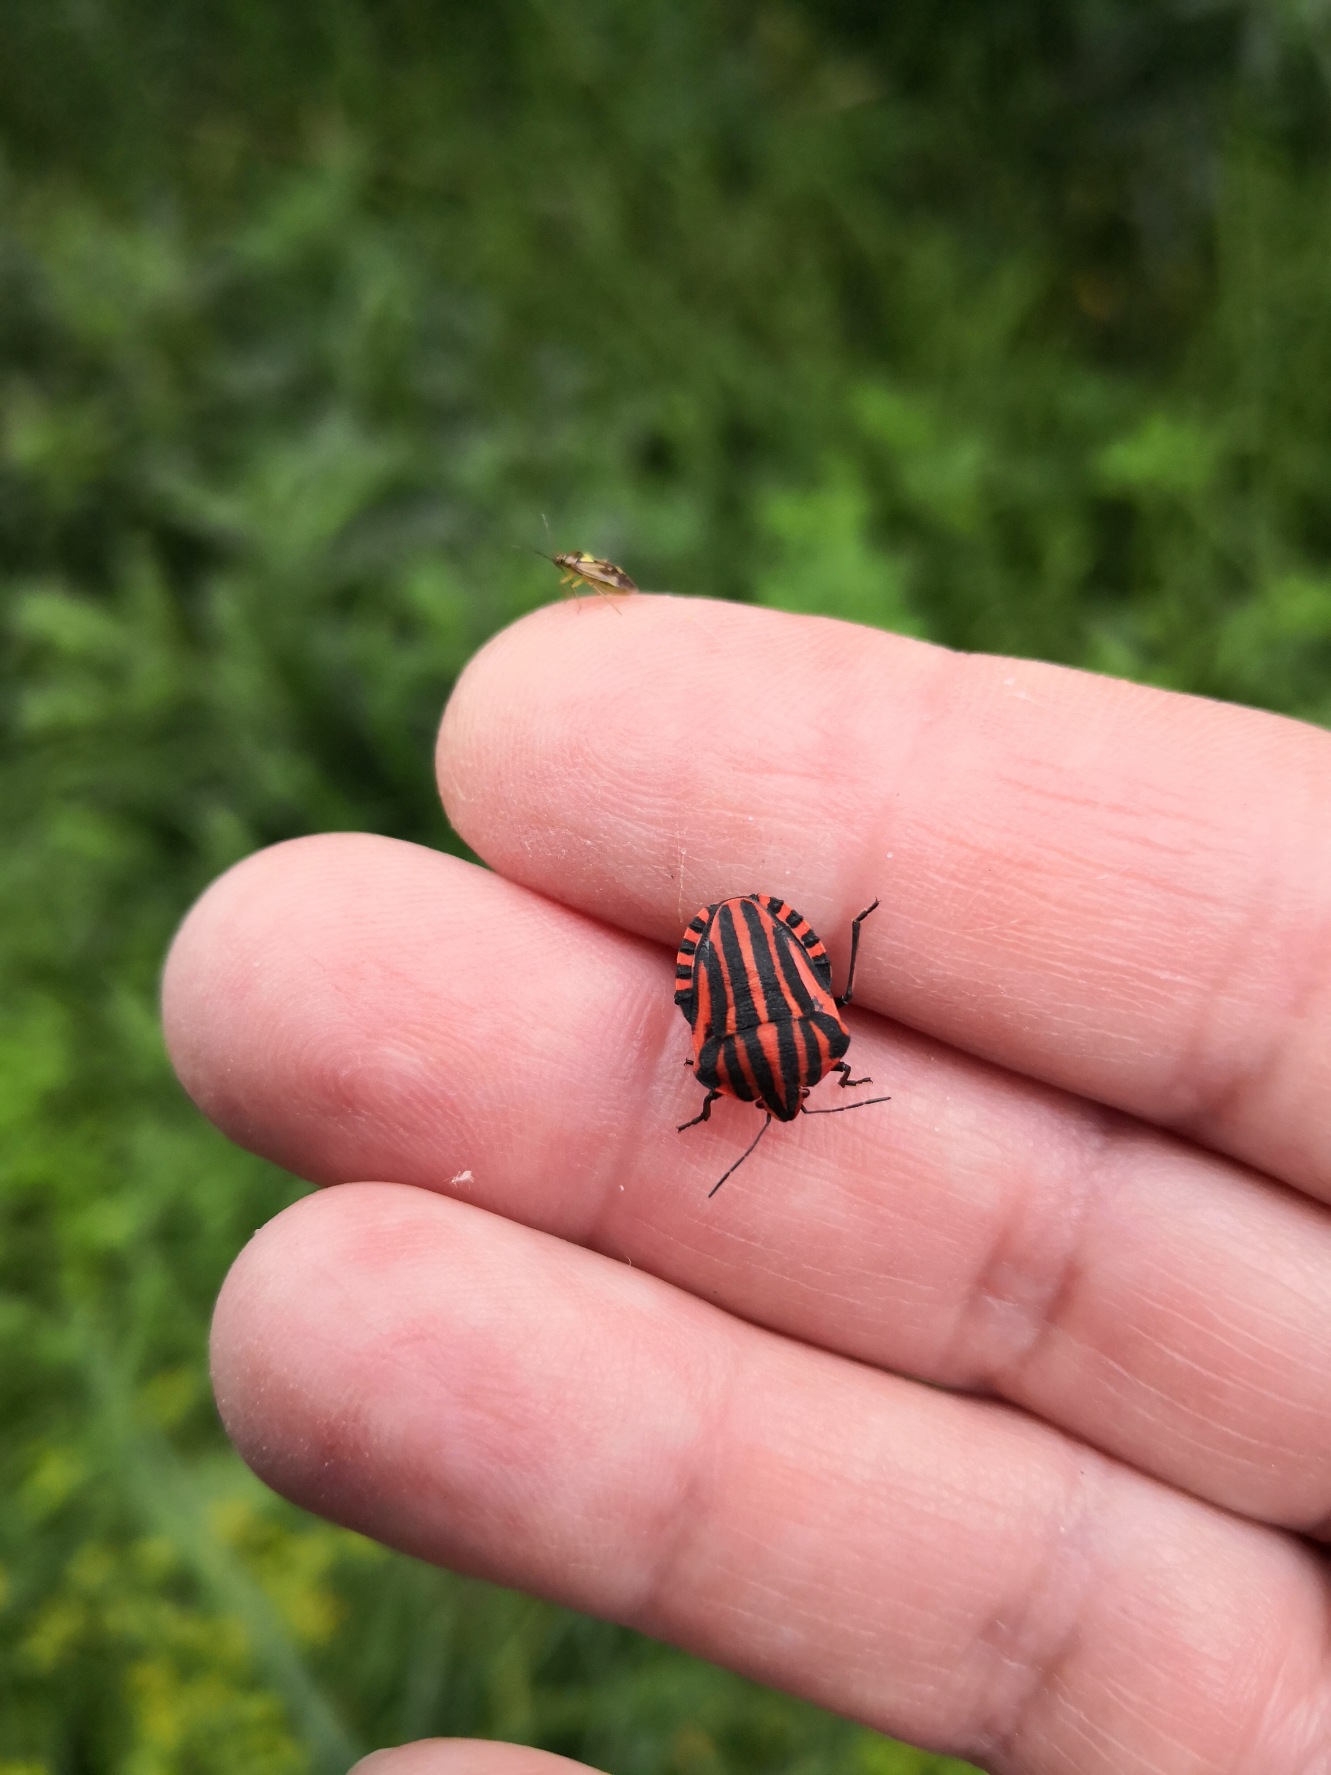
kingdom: Animalia
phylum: Arthropoda
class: Insecta
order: Hemiptera
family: Pentatomidae
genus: Graphosoma
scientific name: Graphosoma italicum
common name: Stribetæge
